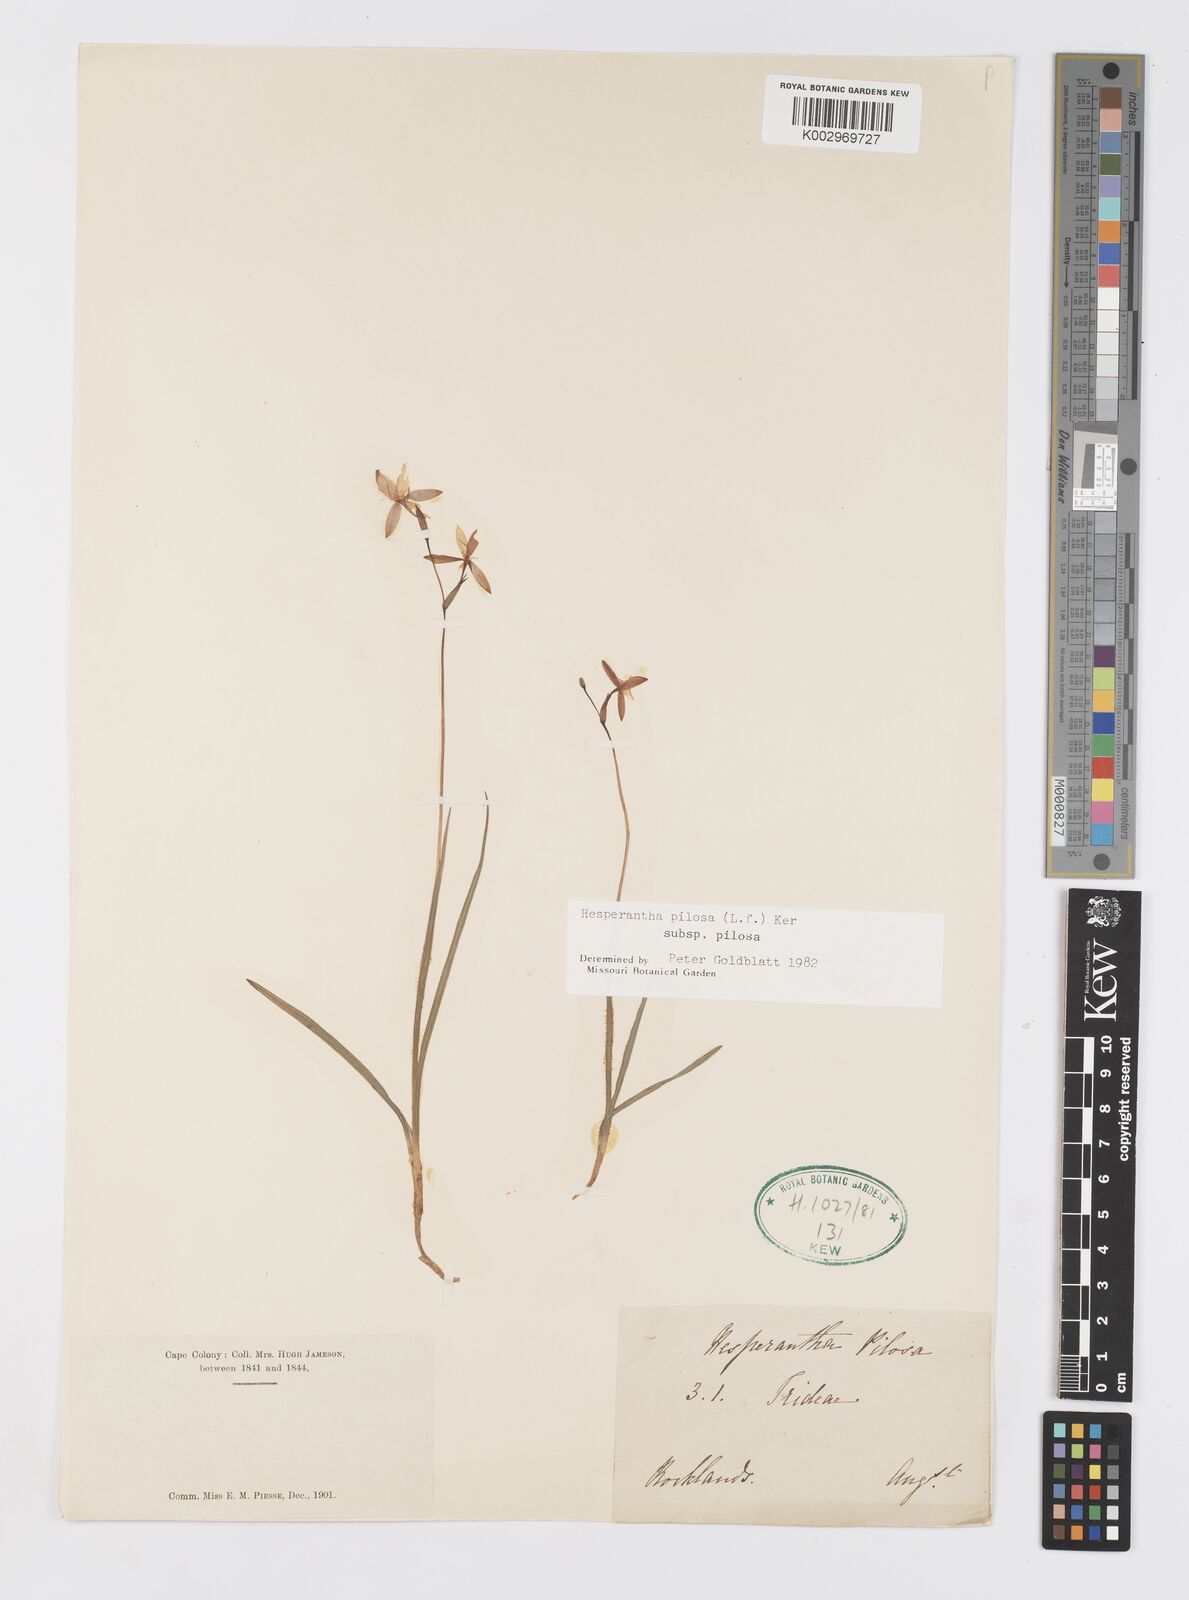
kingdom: Plantae
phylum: Tracheophyta
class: Liliopsida
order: Asparagales
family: Iridaceae
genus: Hesperantha
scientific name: Hesperantha pilosa
